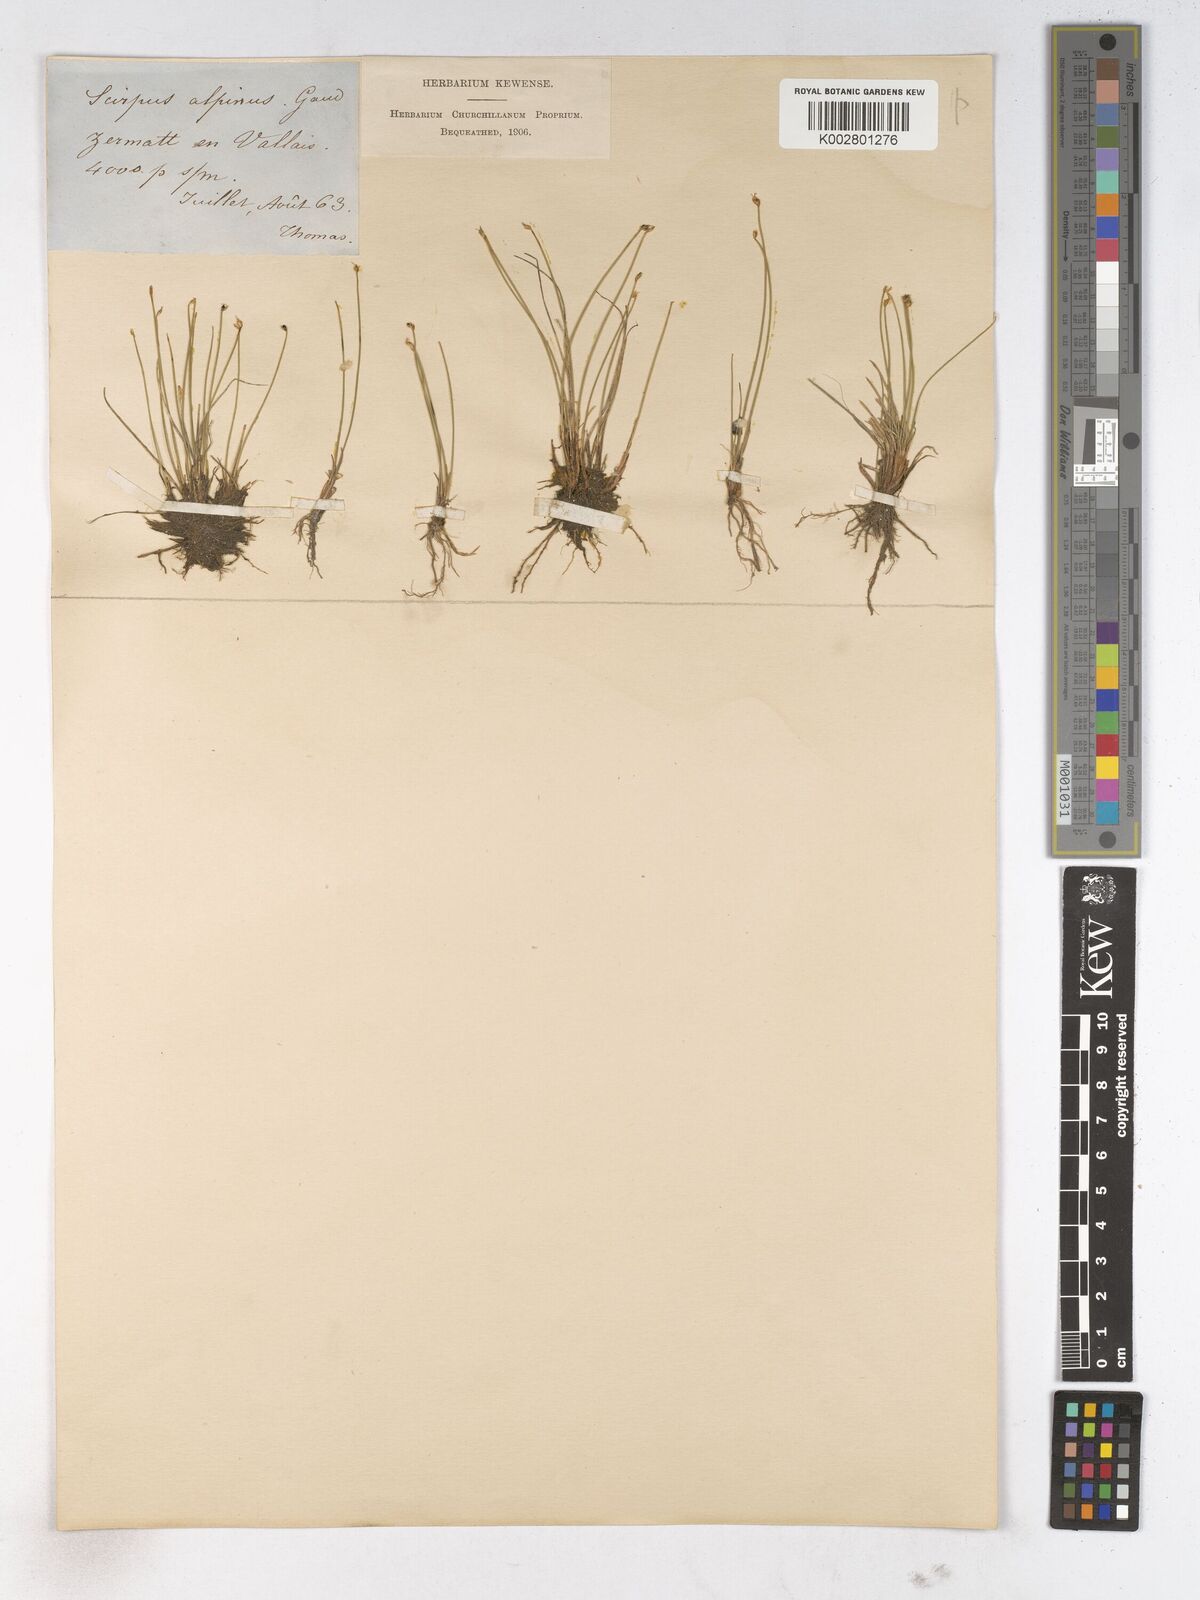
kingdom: Plantae
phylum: Tracheophyta
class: Liliopsida
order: Poales
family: Cyperaceae
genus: Trichophorum
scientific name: Trichophorum pumilum
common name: Rolland's bulrush
